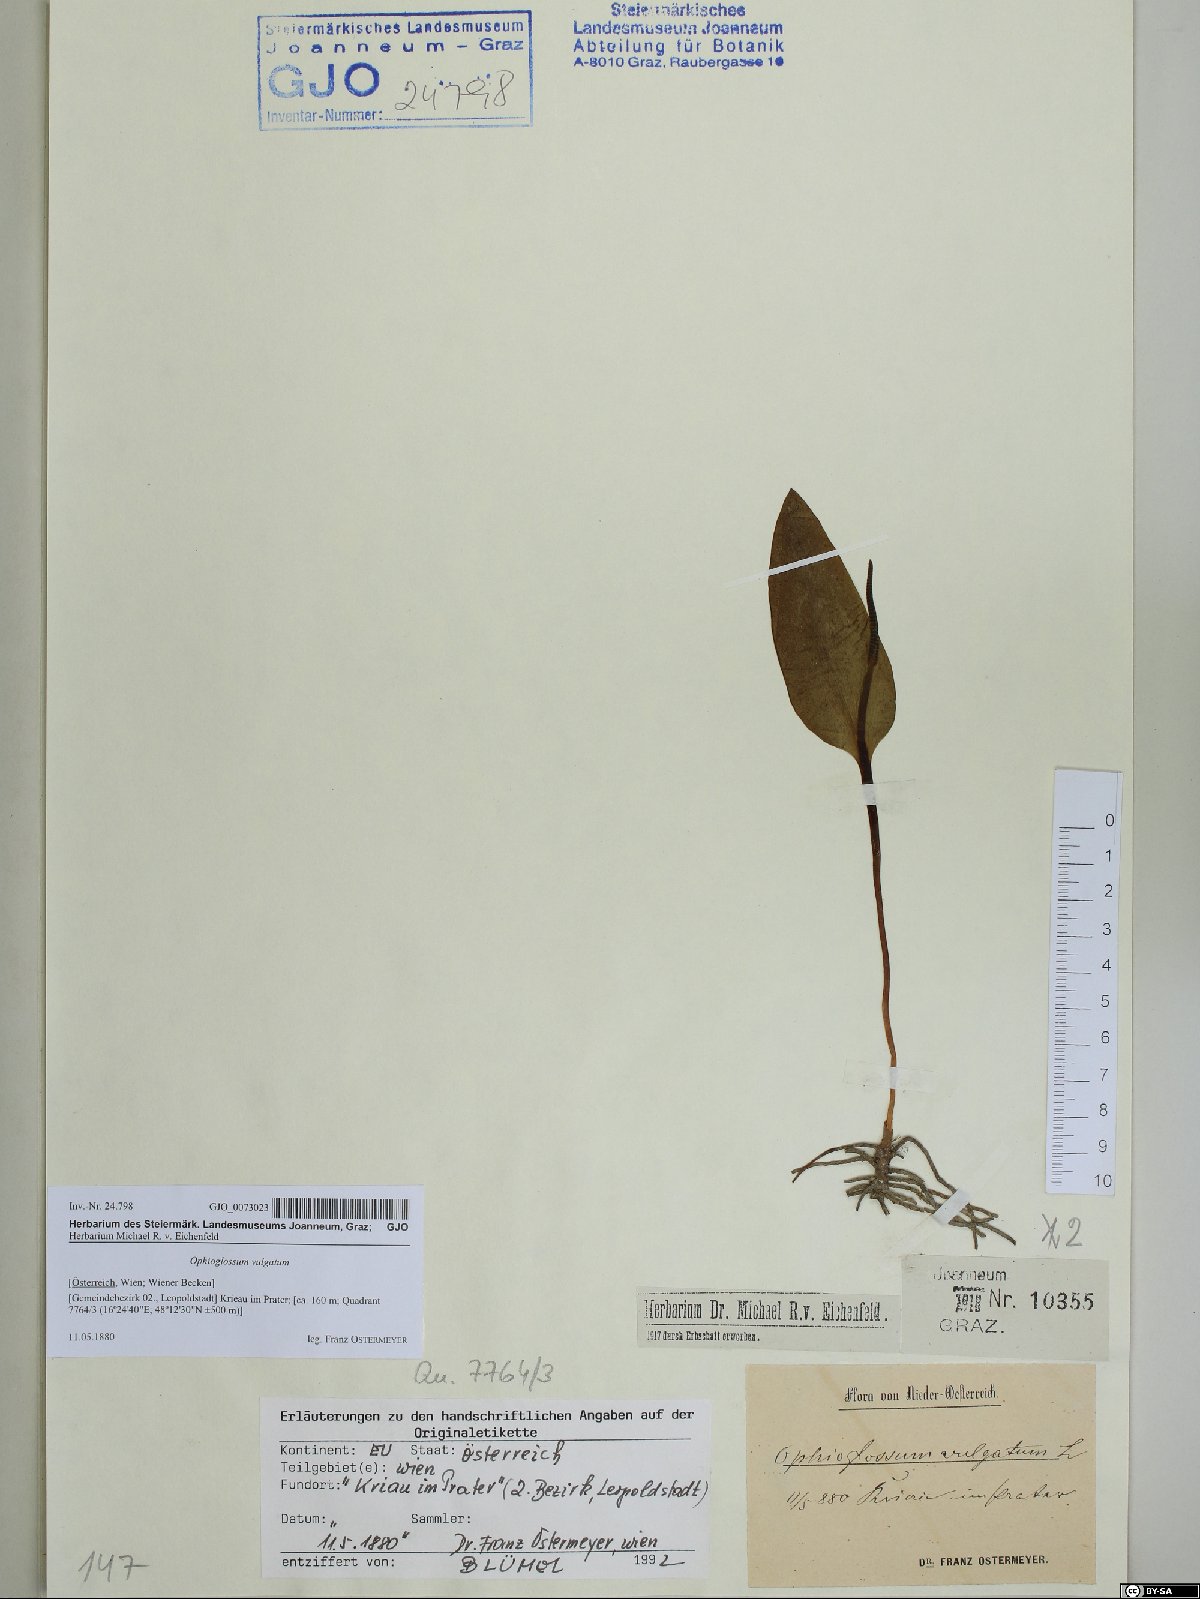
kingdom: Plantae
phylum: Tracheophyta
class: Polypodiopsida
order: Ophioglossales
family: Ophioglossaceae
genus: Ophioglossum
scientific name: Ophioglossum vulgatum
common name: Adder's-tongue
